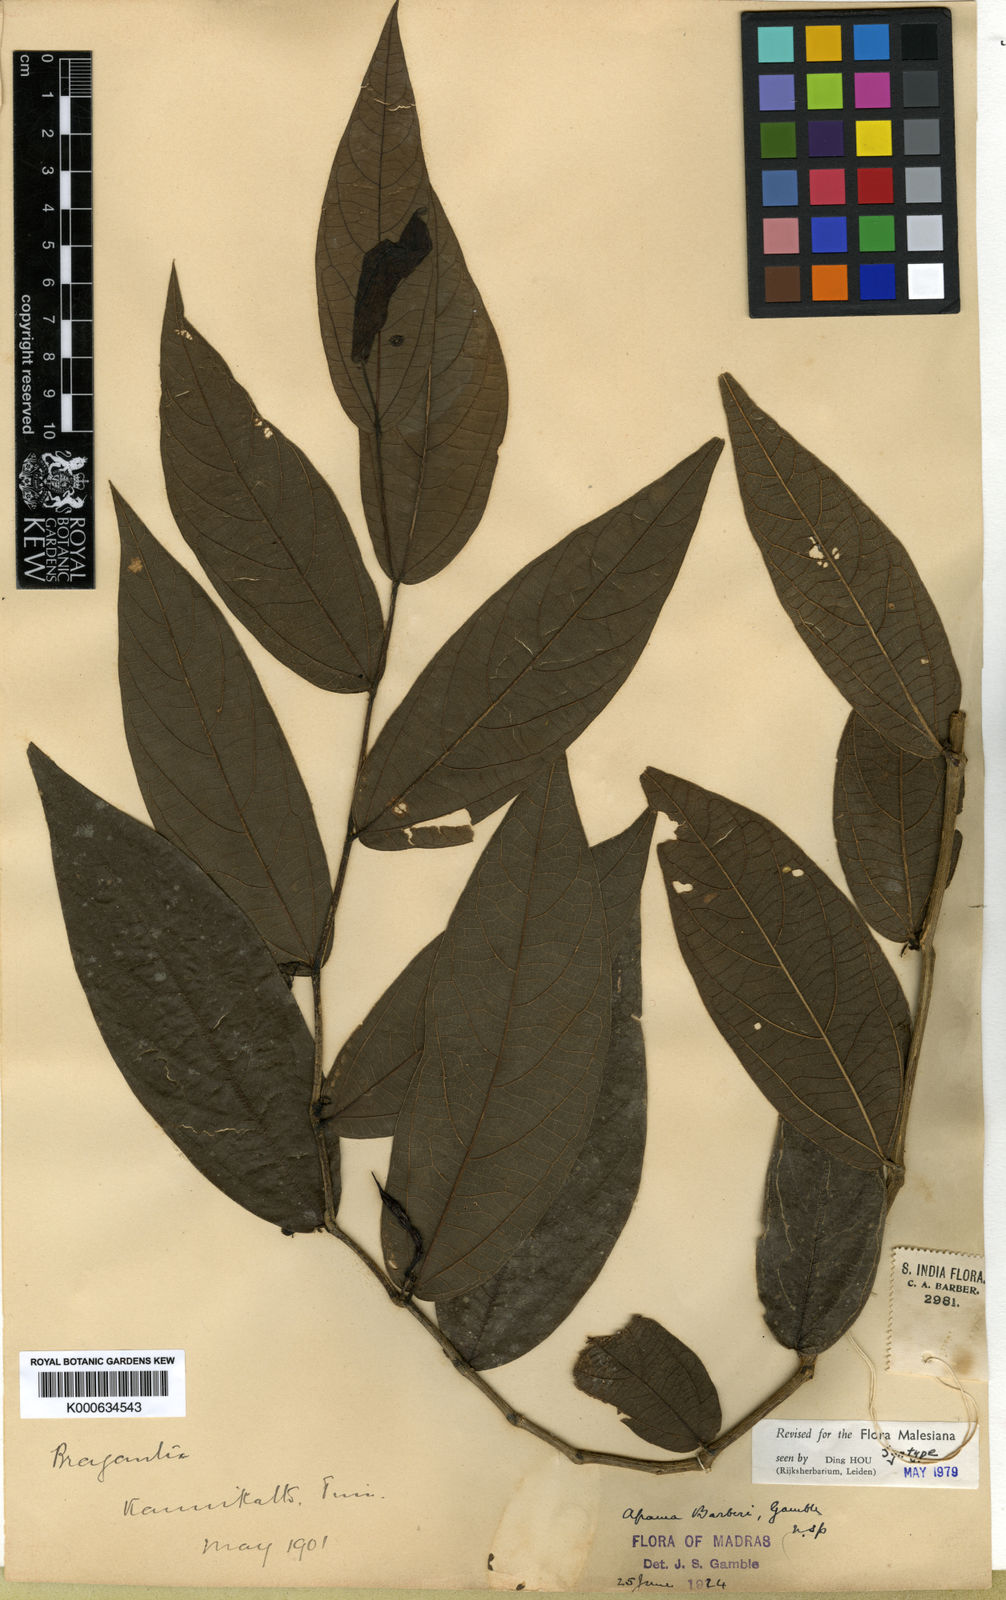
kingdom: Plantae
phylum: Tracheophyta
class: Magnoliopsida
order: Piperales
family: Aristolochiaceae
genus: Thottea
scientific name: Thottea barberi
